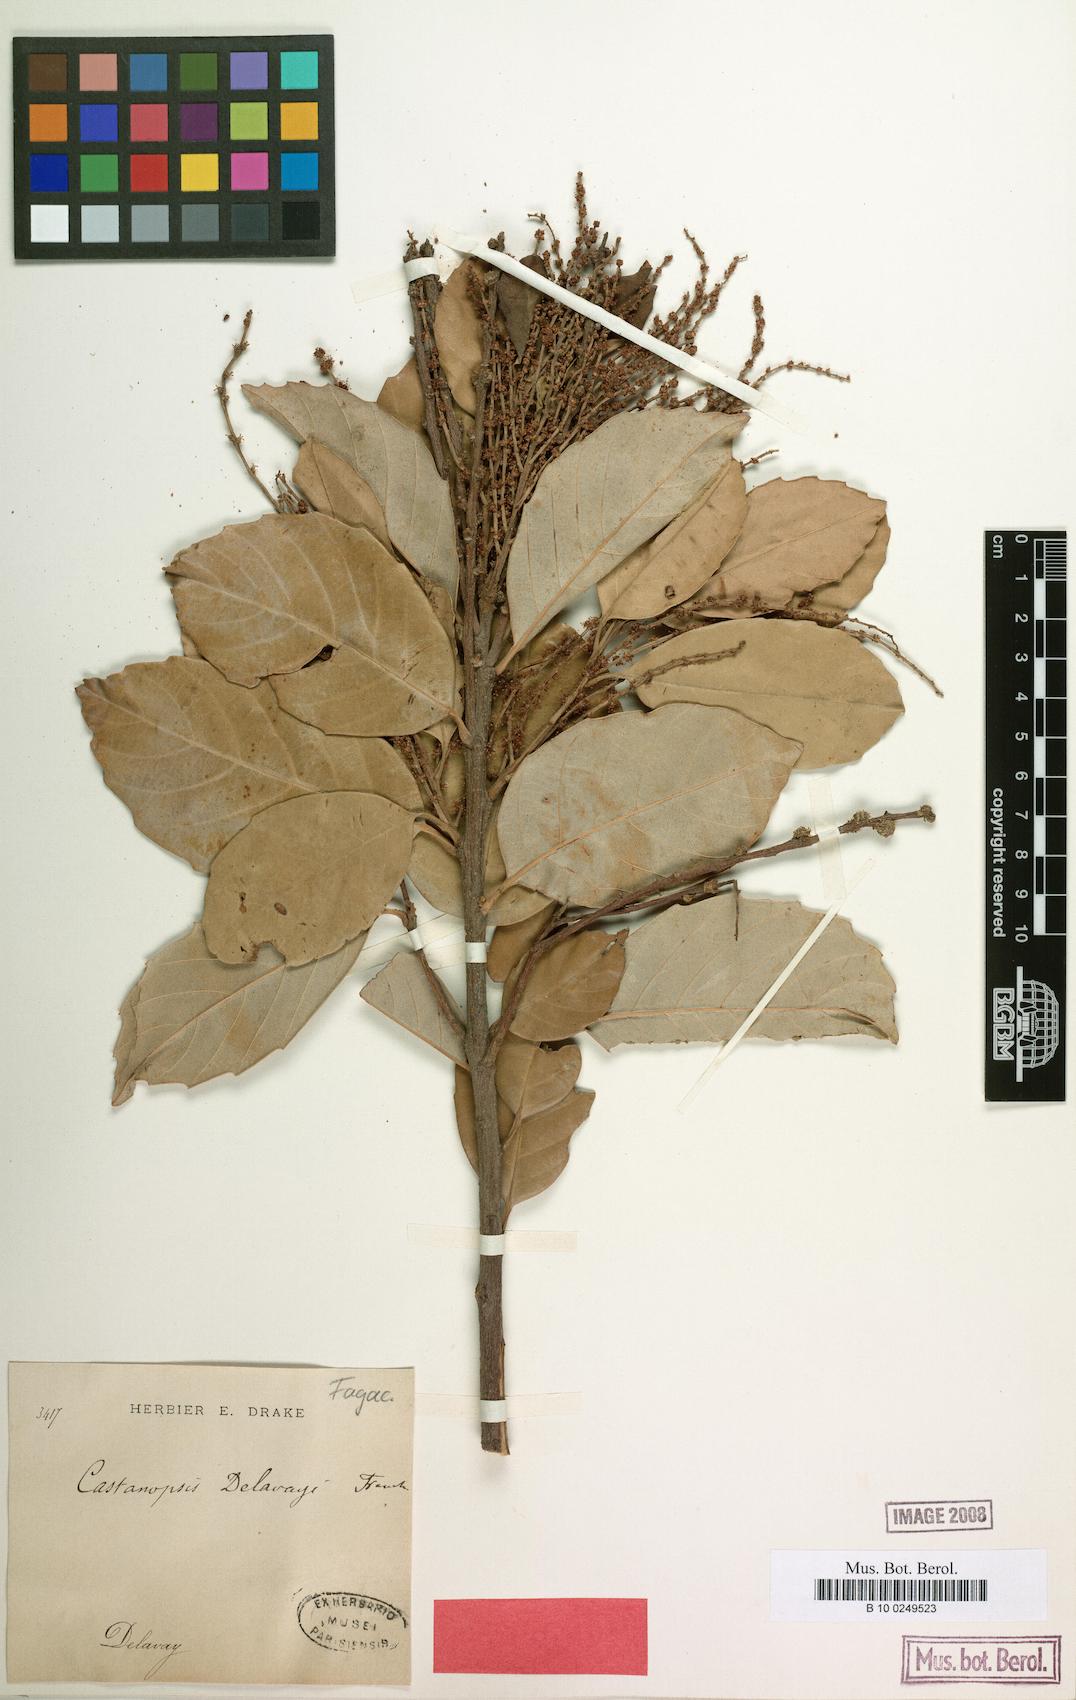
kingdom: Plantae
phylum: Tracheophyta
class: Magnoliopsida
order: Fagales
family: Fagaceae
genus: Castanopsis
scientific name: Castanopsis delavayi
